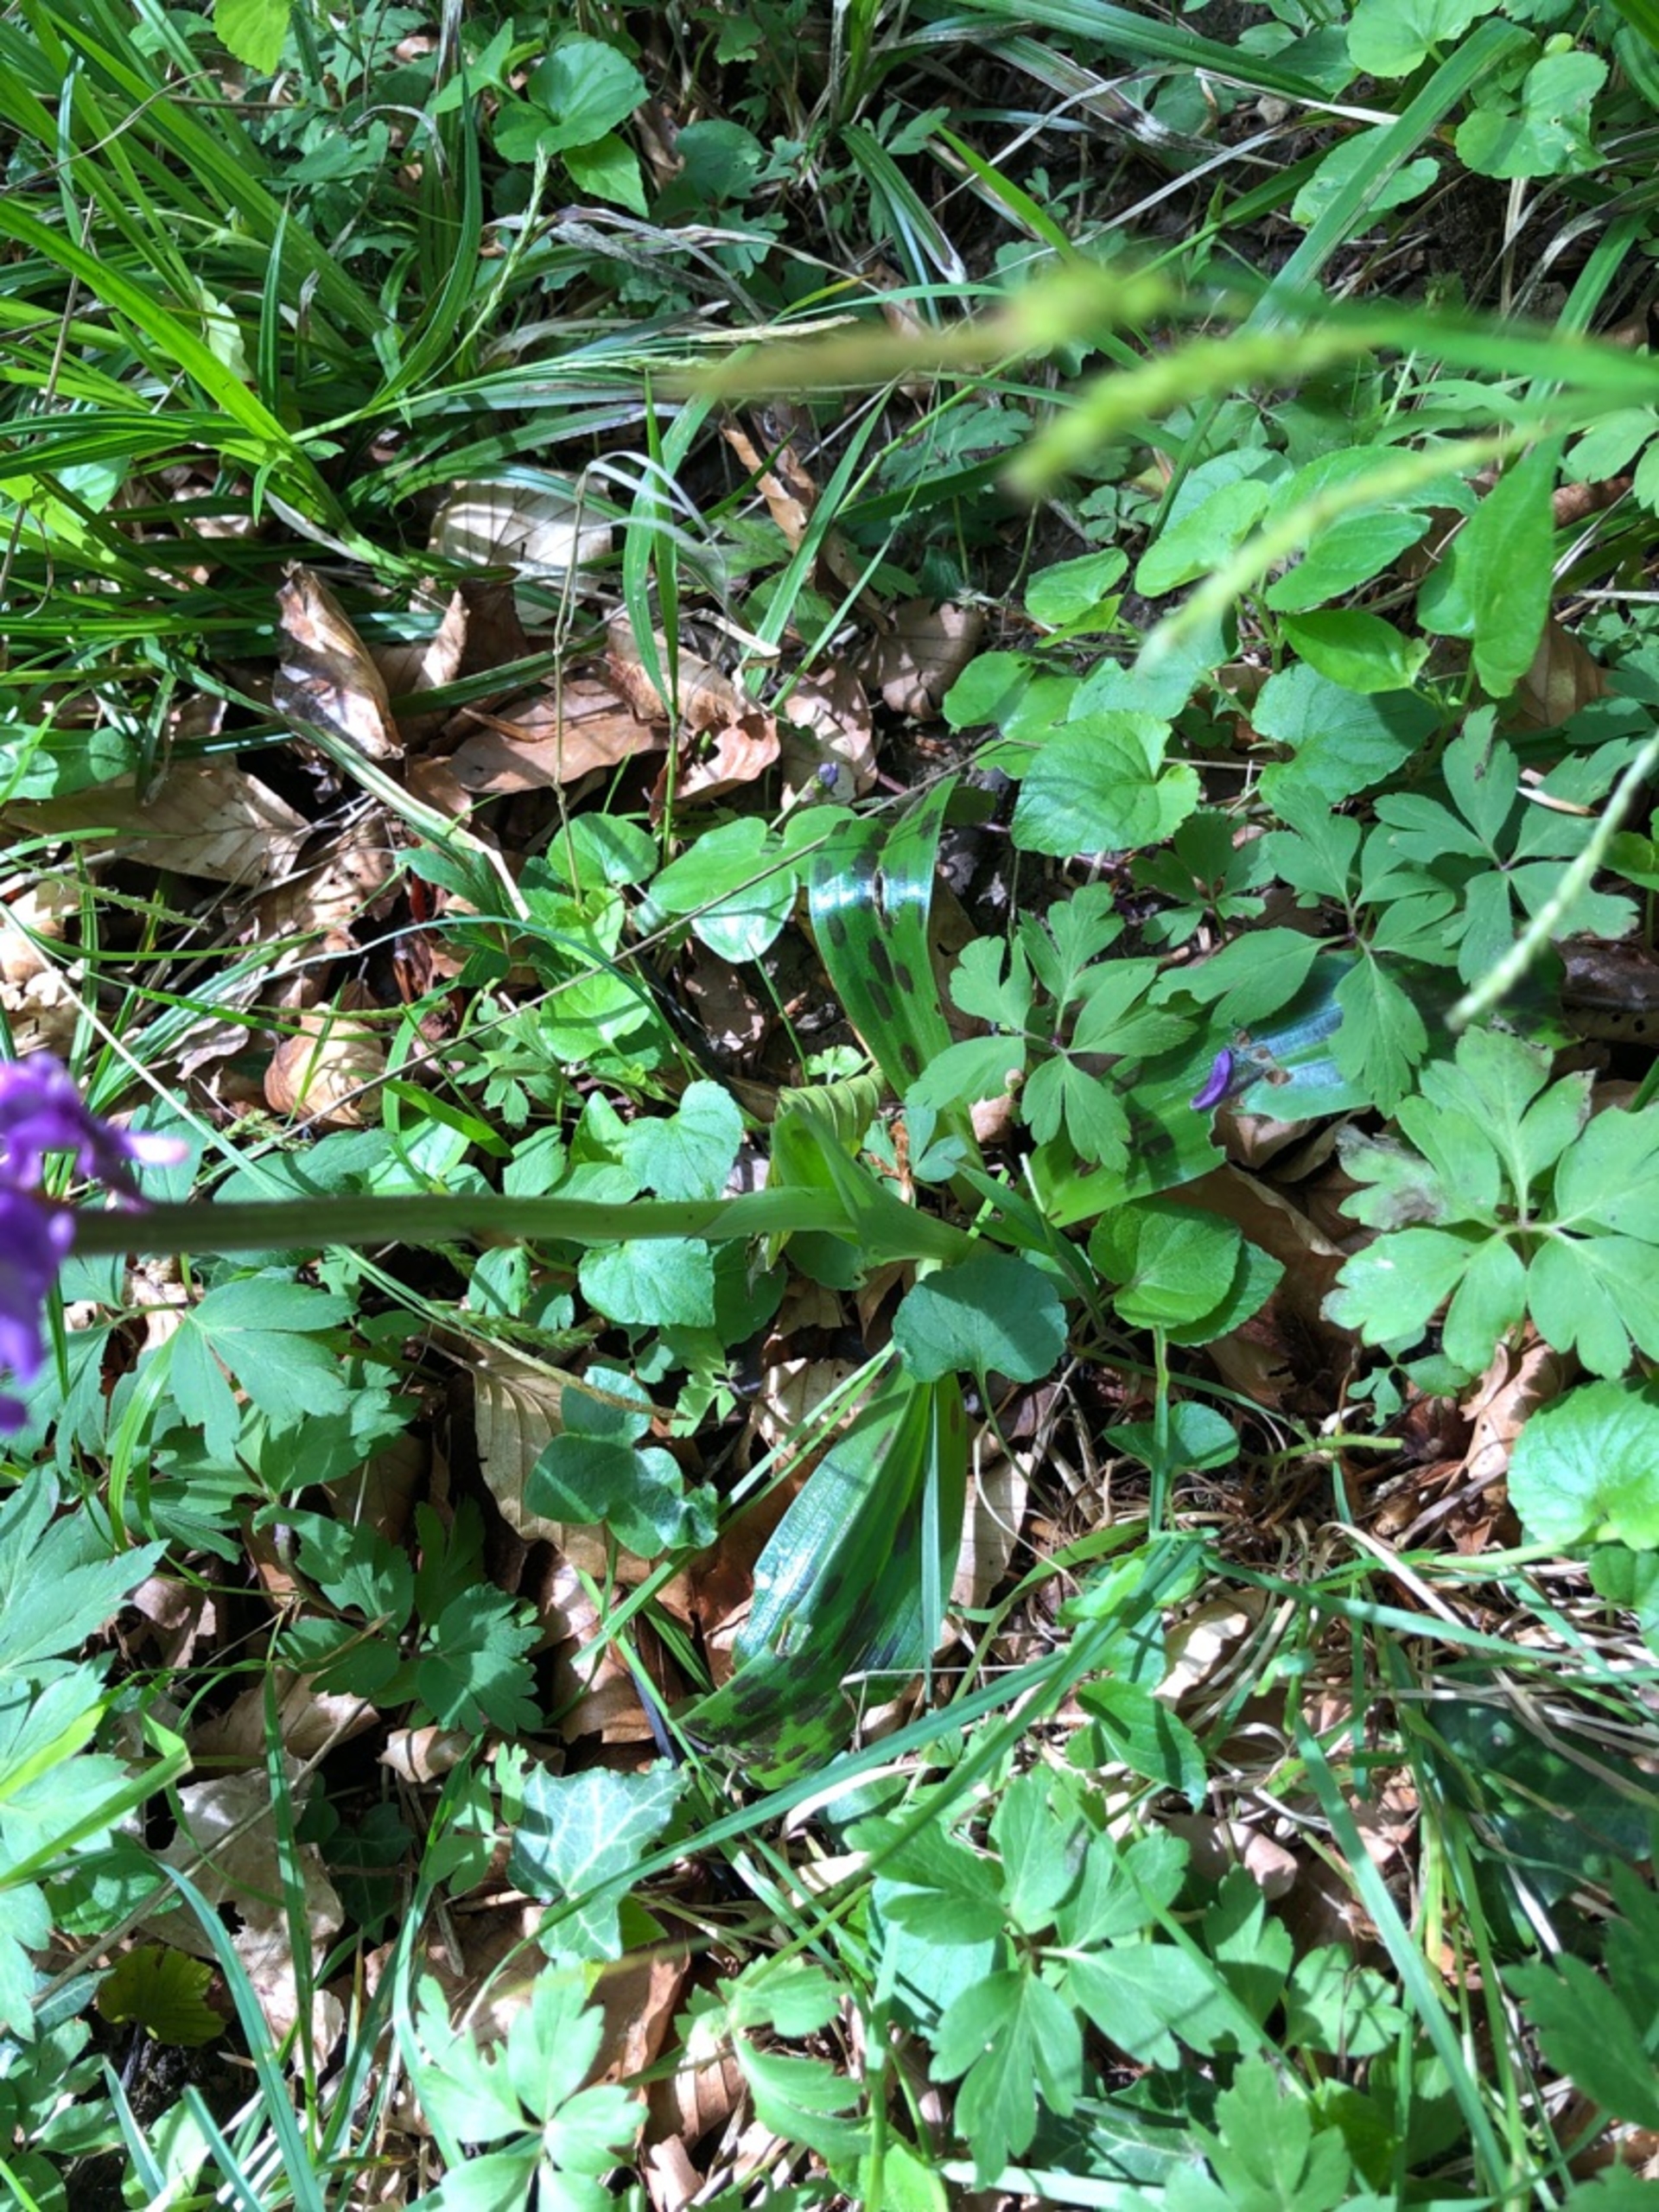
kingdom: Plantae
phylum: Tracheophyta
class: Liliopsida
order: Asparagales
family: Orchidaceae
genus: Orchis
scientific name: Orchis mascula
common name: Tyndakset gøgeurt
